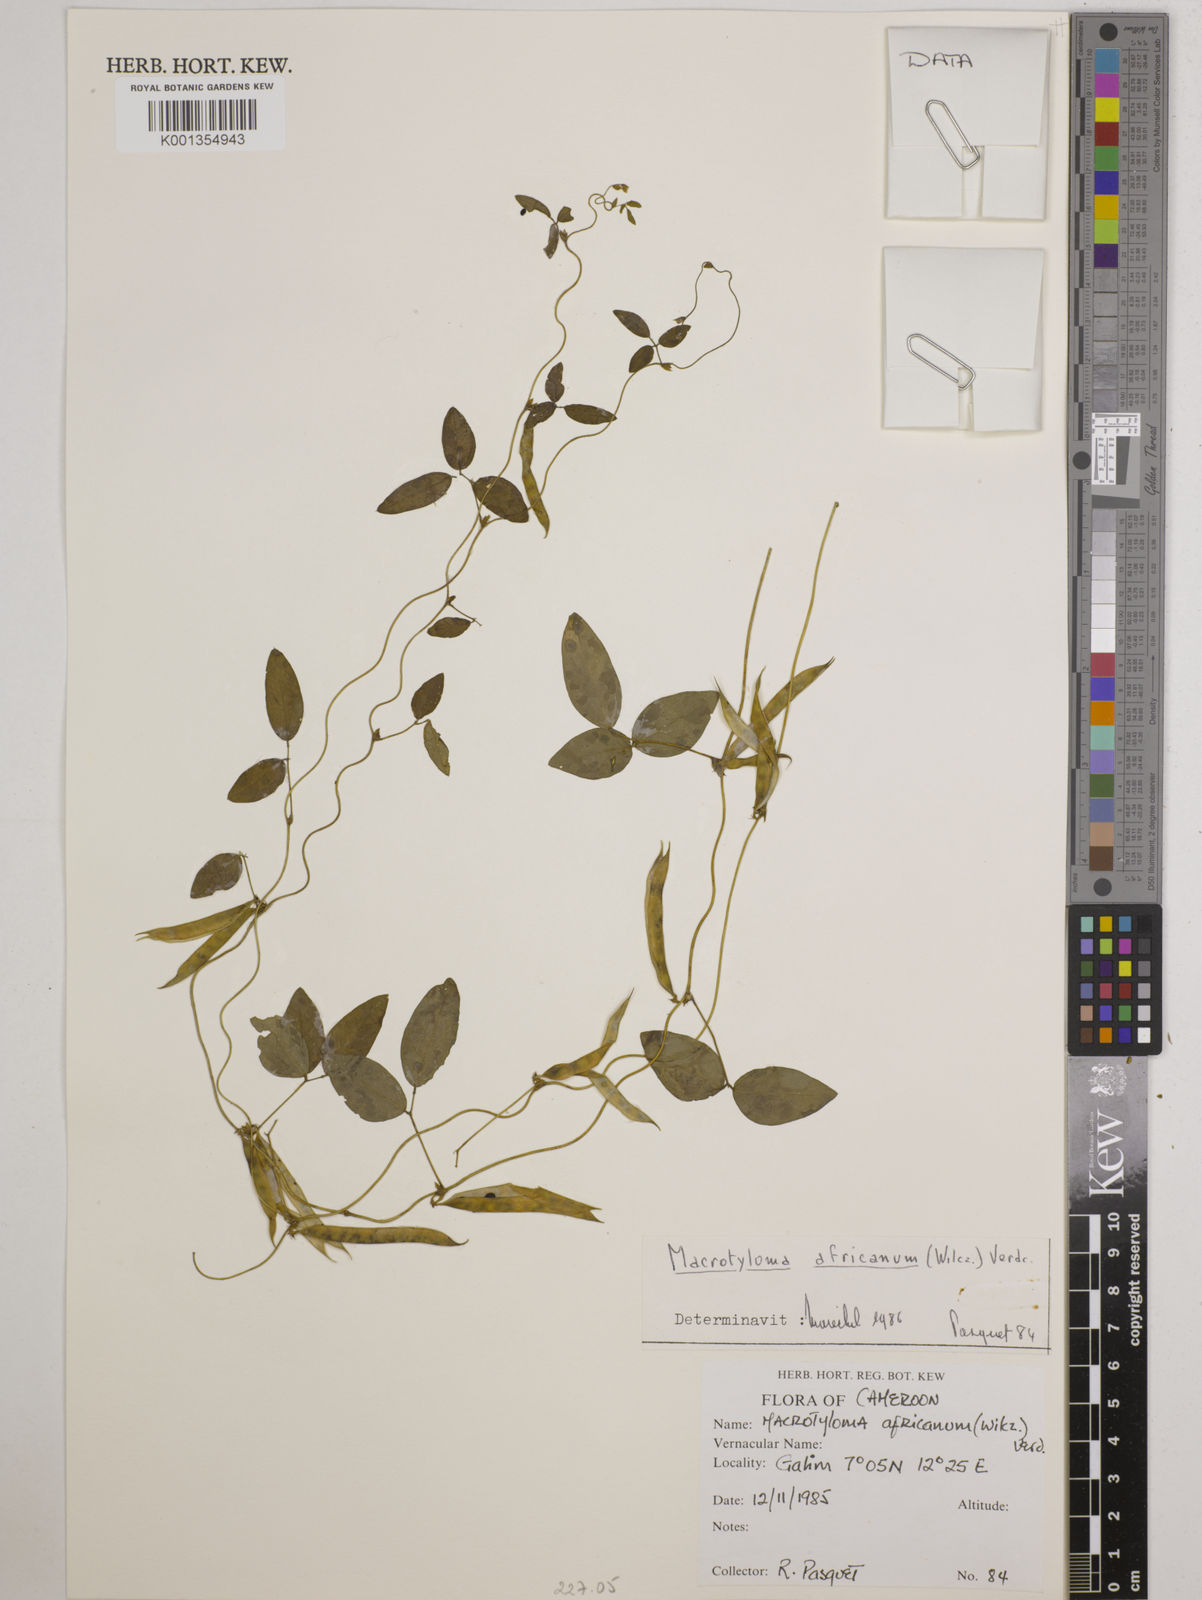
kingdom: Plantae
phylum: Tracheophyta
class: Magnoliopsida
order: Fabales
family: Fabaceae
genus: Macrotyloma
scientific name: Macrotyloma africanum
